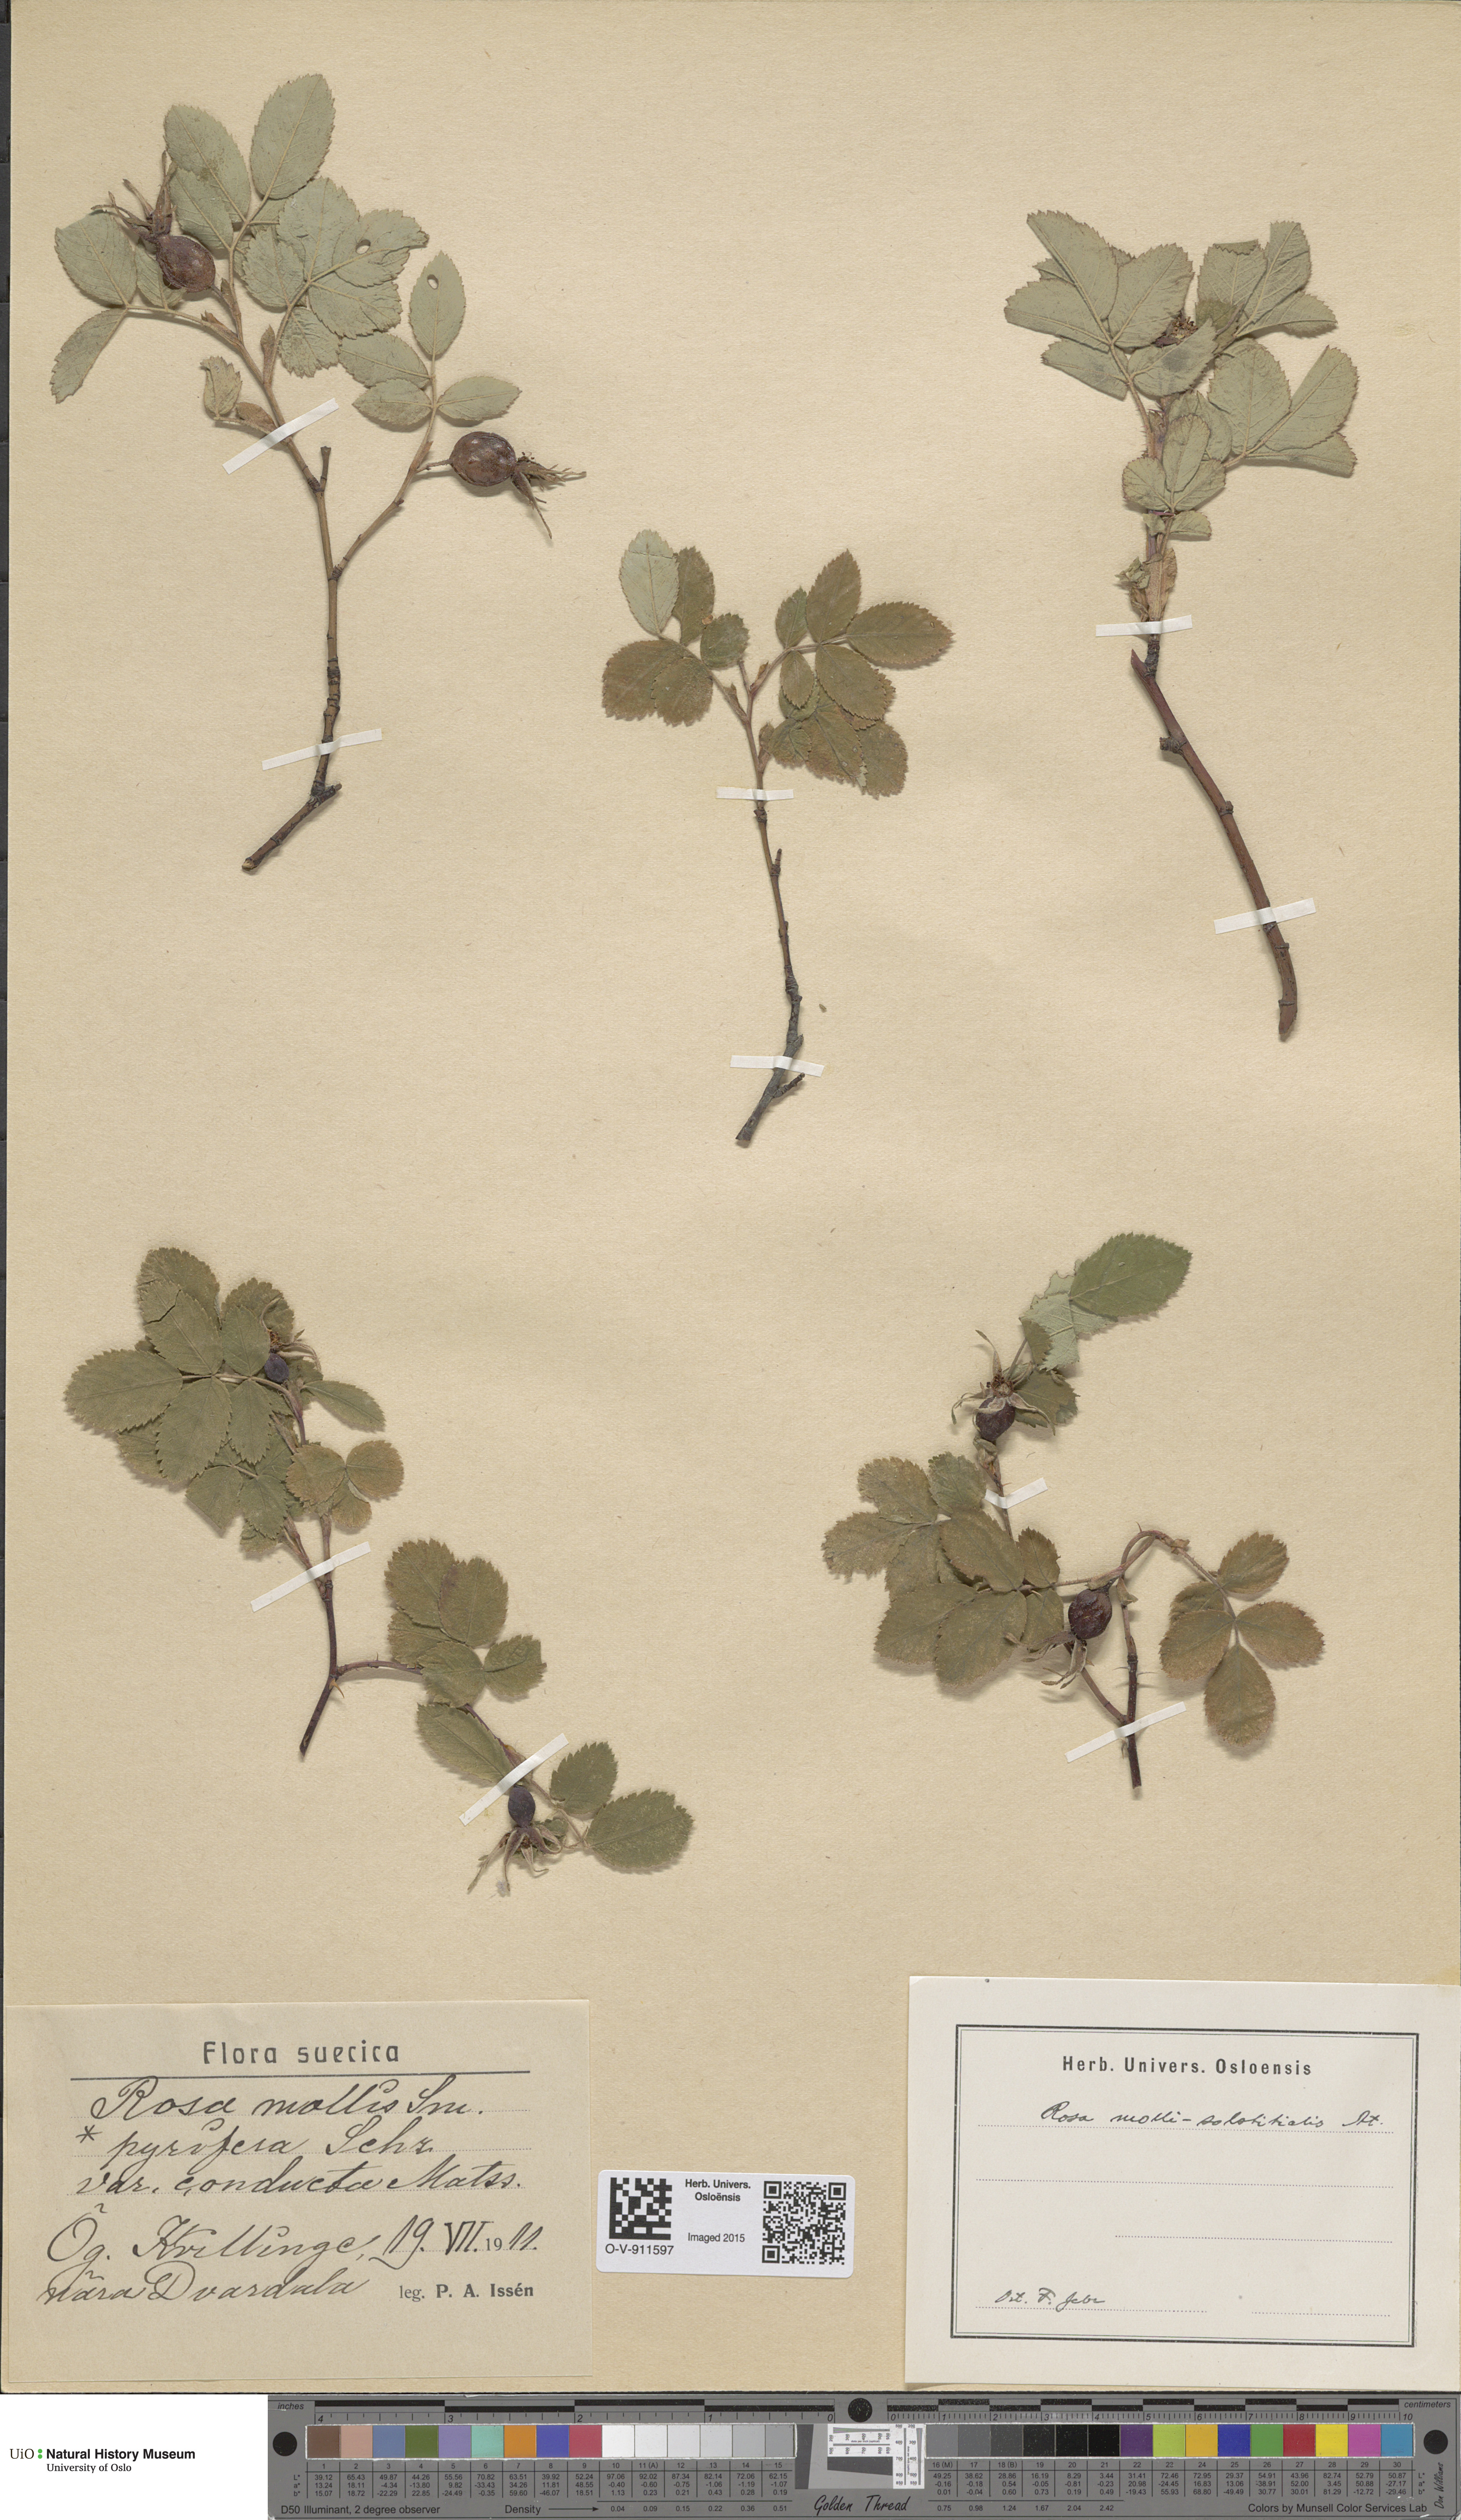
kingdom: Plantae
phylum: Tracheophyta
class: Magnoliopsida
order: Rosales
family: Rosaceae
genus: Rosa
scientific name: Rosa mollis
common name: Rose
